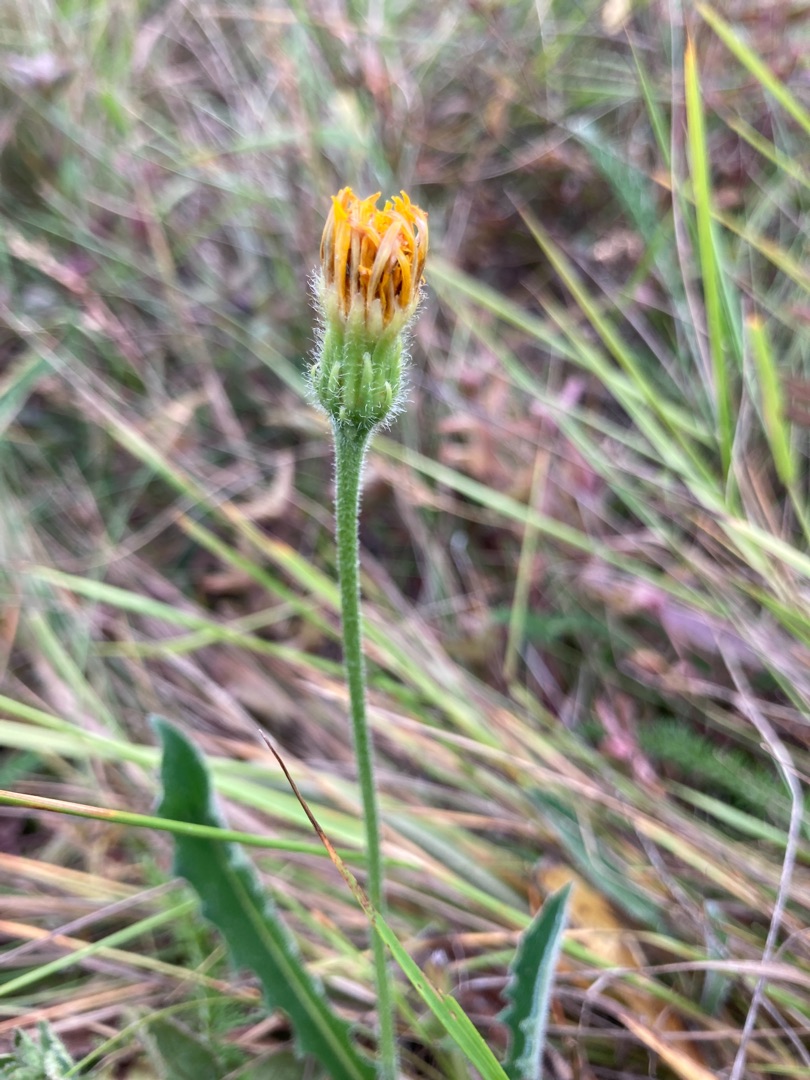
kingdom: Plantae
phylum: Tracheophyta
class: Magnoliopsida
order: Asterales
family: Asteraceae
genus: Leontodon
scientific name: Leontodon hispidus
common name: Stivhåret borst
